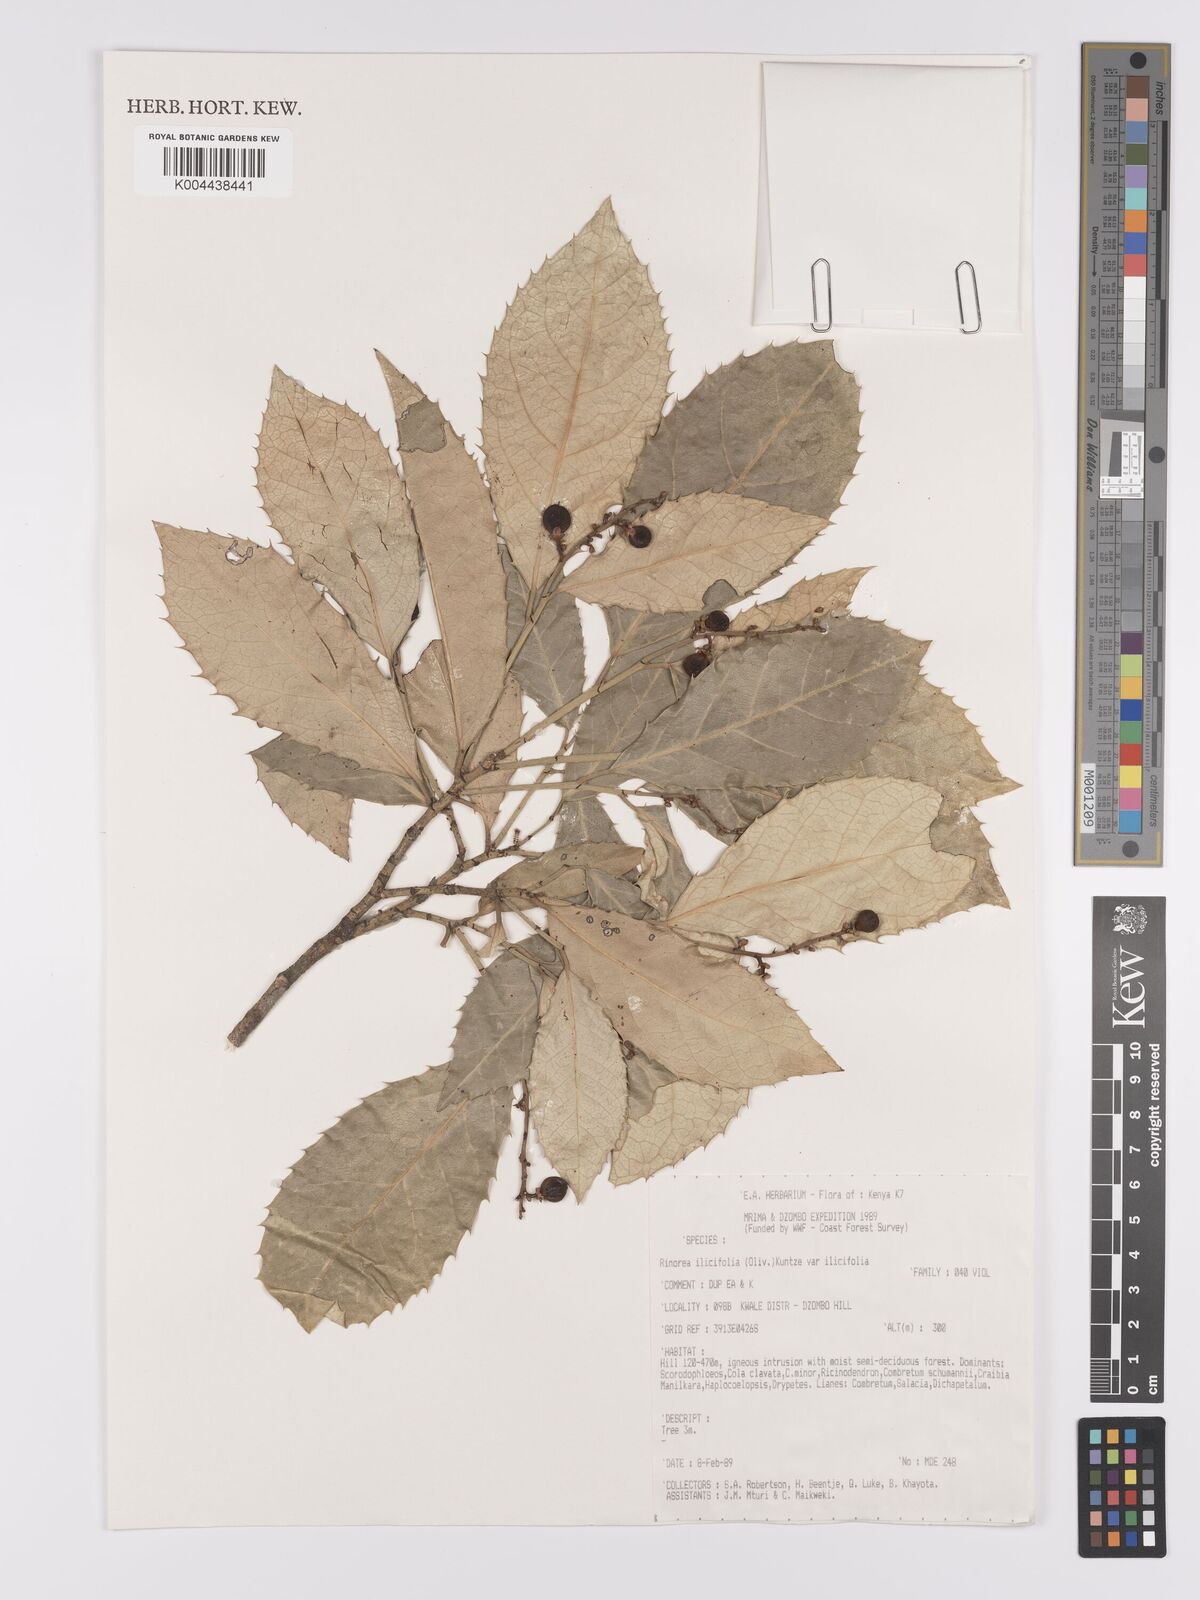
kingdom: Plantae
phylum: Tracheophyta
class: Magnoliopsida
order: Malpighiales
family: Violaceae
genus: Rinorea
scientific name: Rinorea ilicifolia
